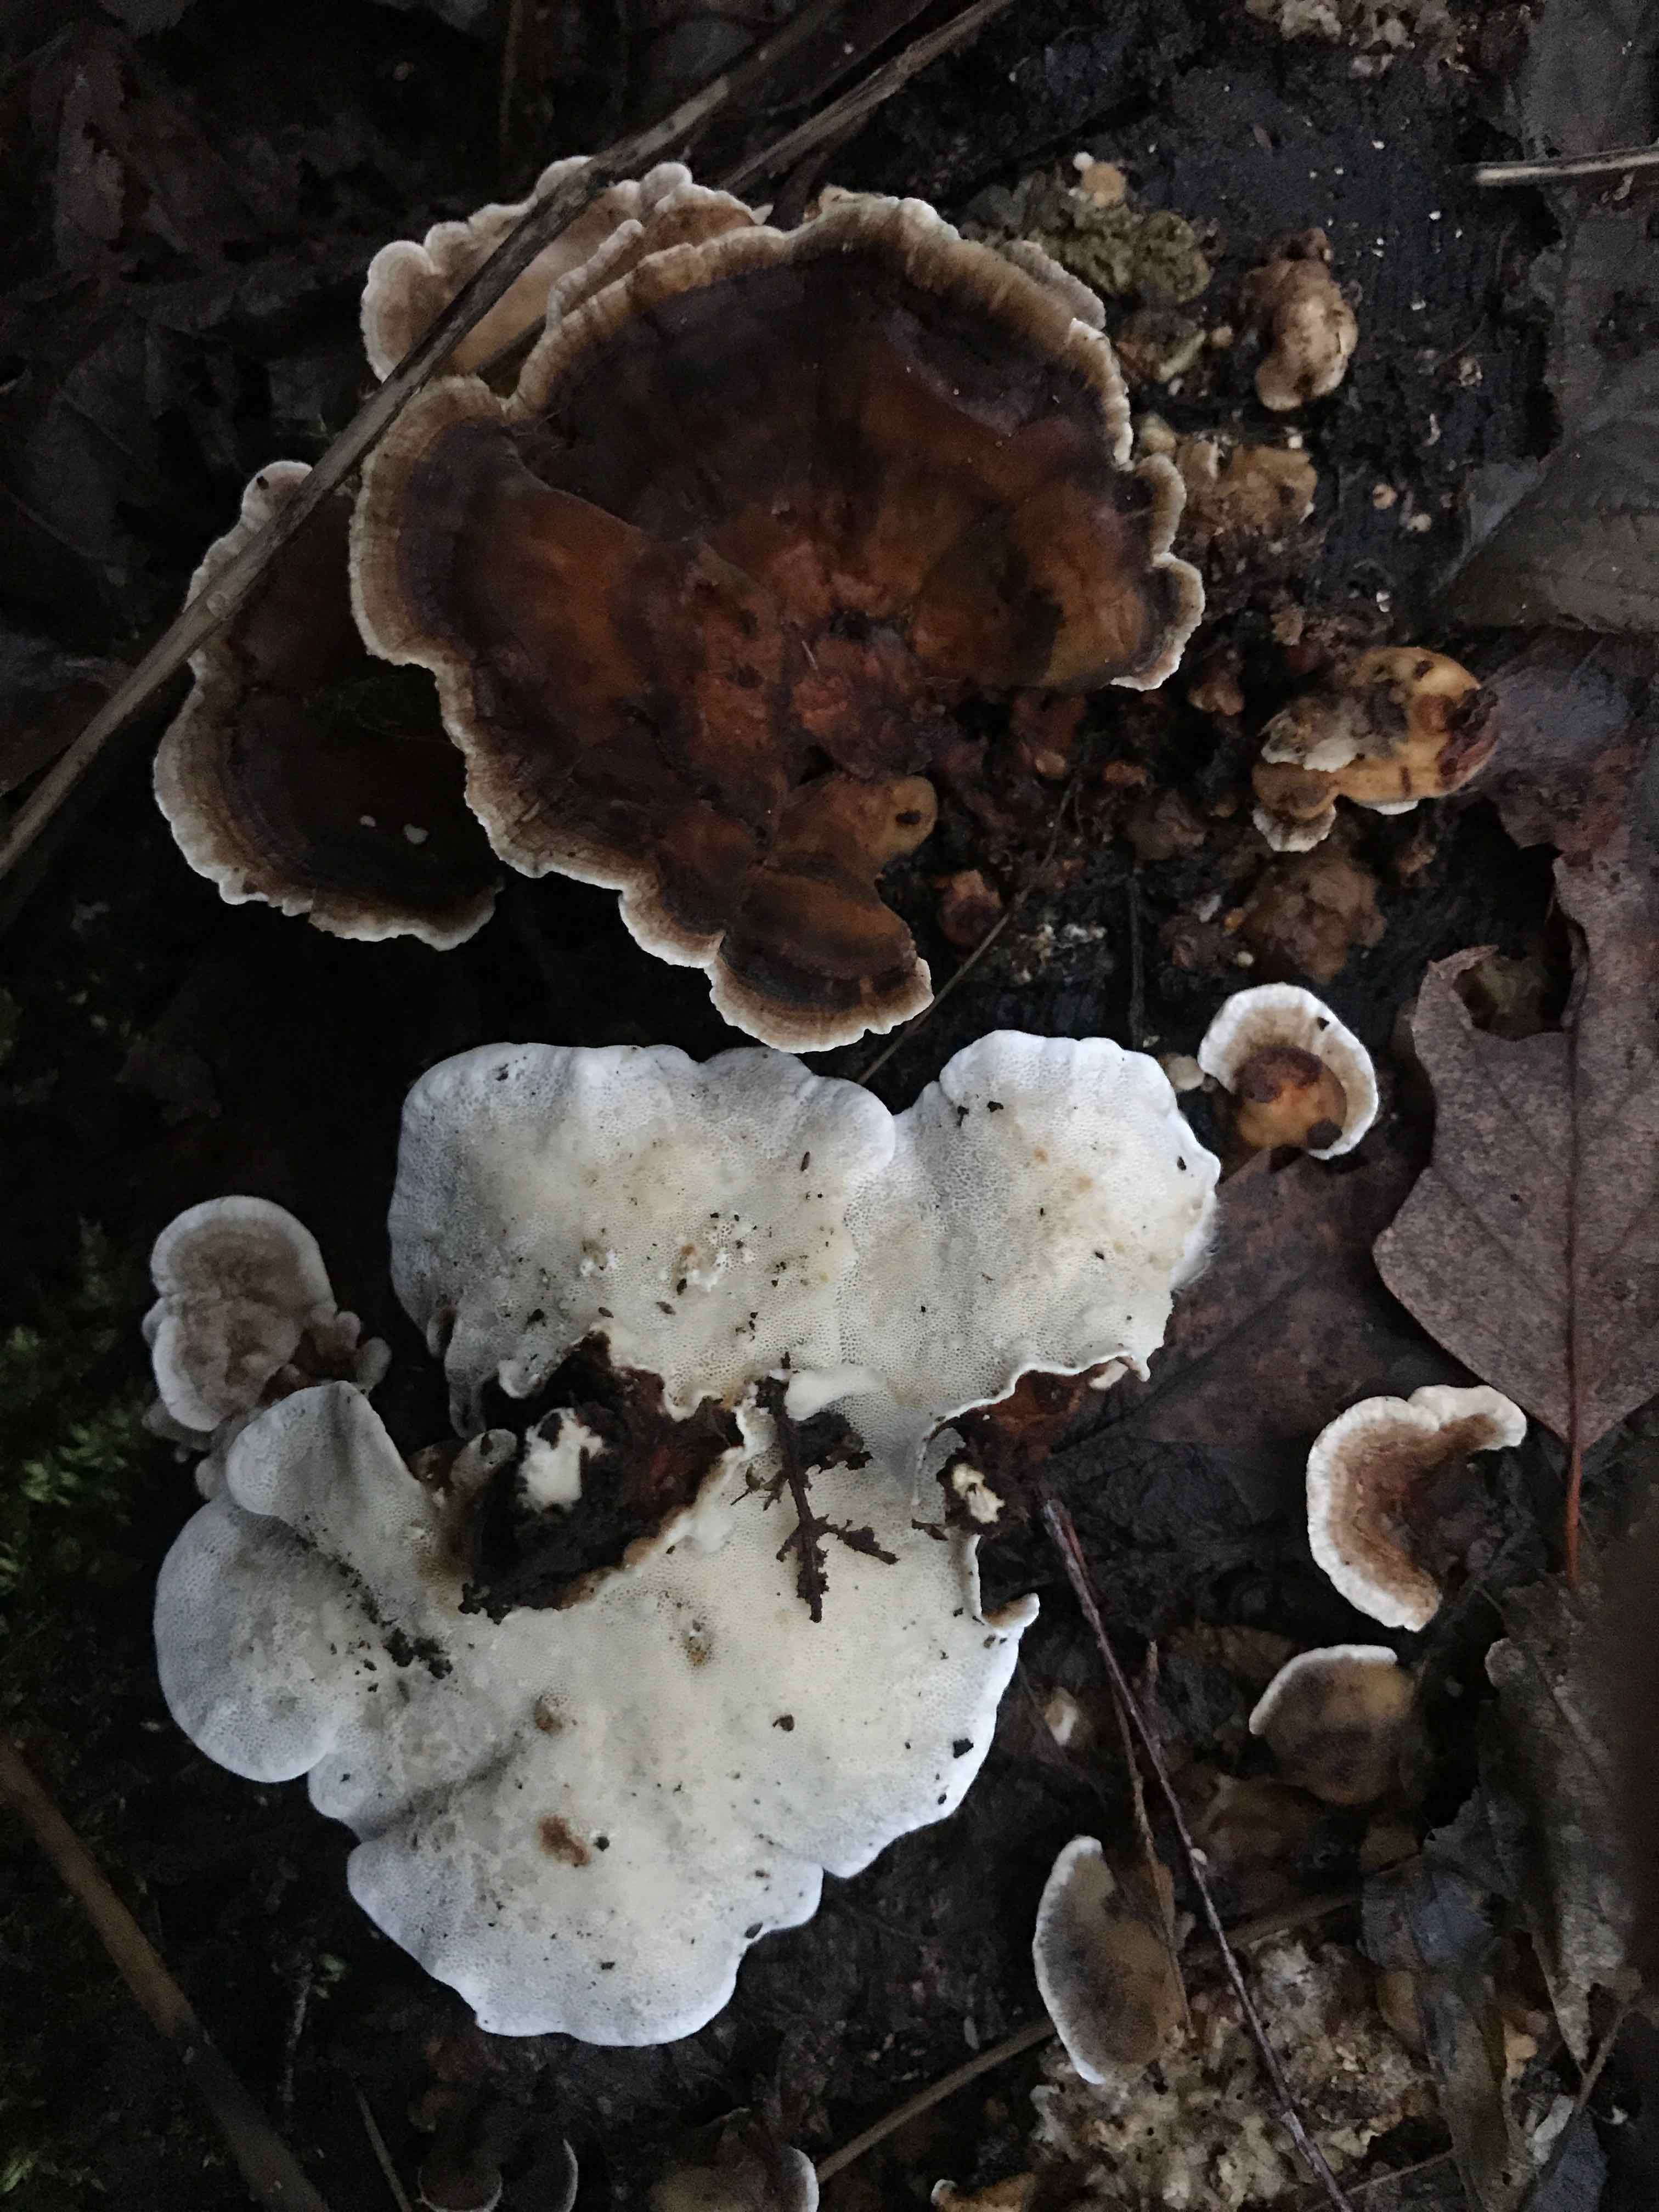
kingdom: Fungi
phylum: Basidiomycota
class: Agaricomycetes
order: Polyporales
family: Polyporaceae
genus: Trametes
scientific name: Trametes versicolor
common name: broget læderporesvamp
